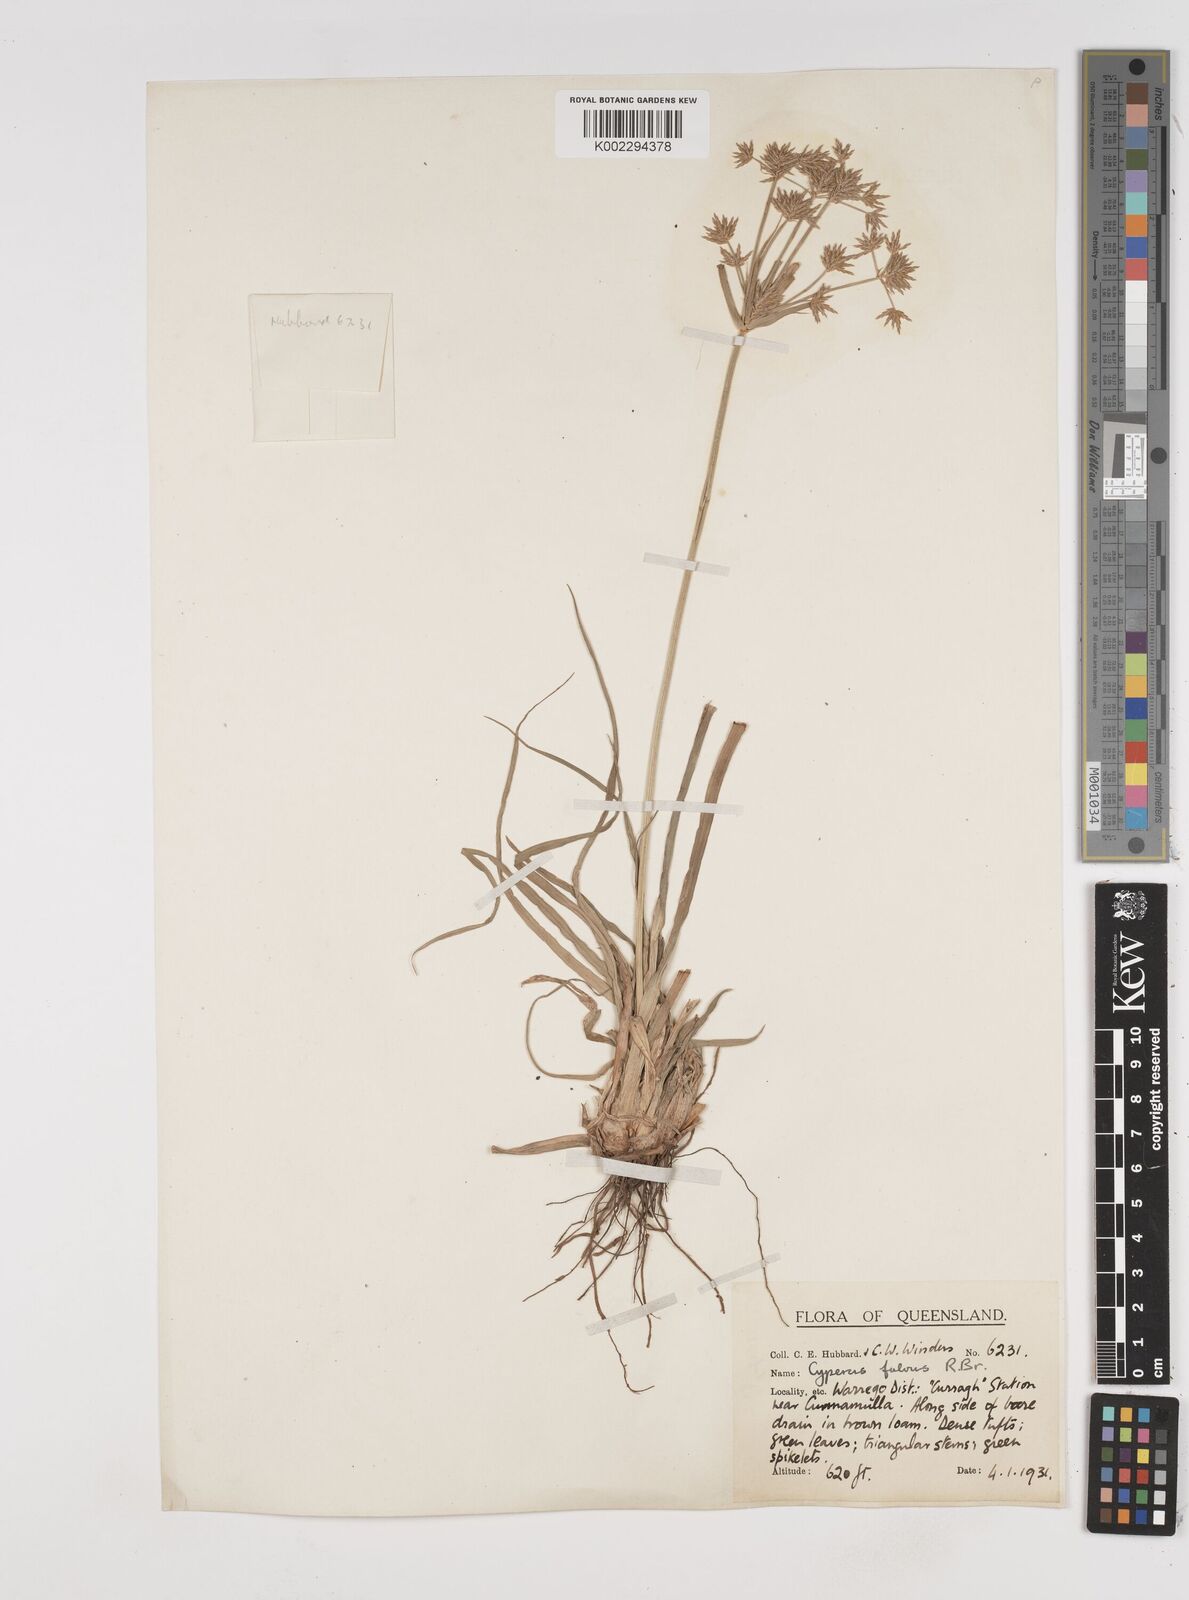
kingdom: Plantae
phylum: Tracheophyta
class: Liliopsida
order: Poales
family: Cyperaceae
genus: Cyperus
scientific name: Cyperus fulvus
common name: Sticky sedge
